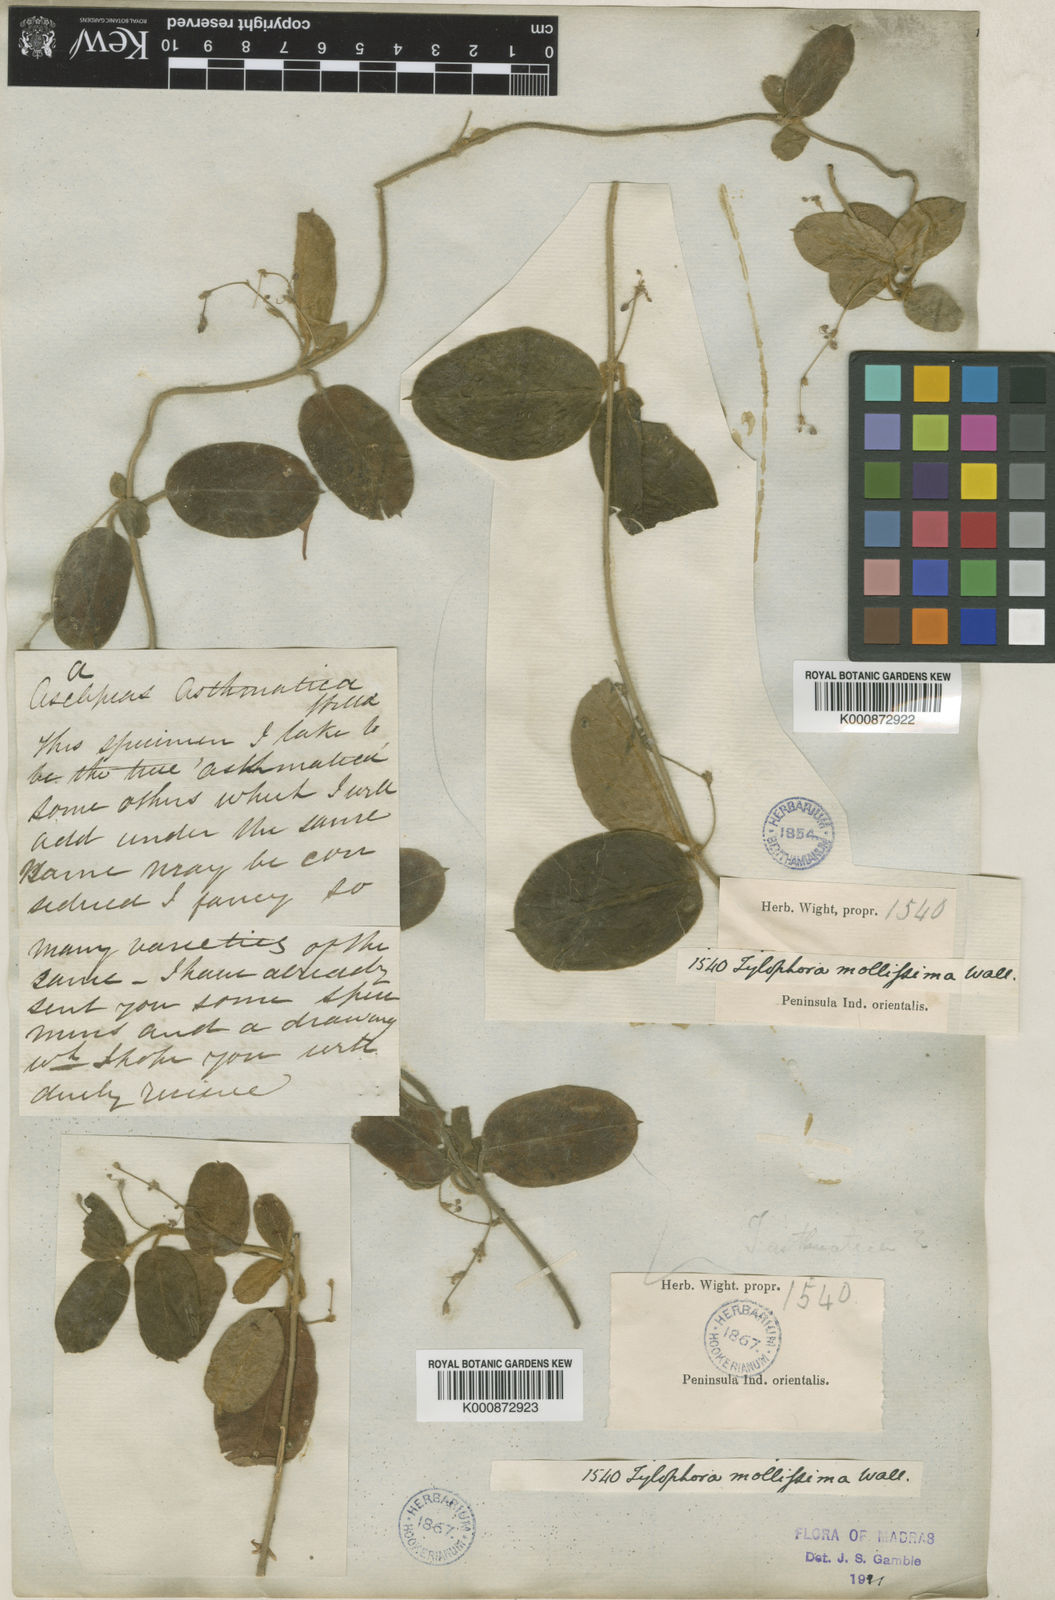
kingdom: Plantae
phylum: Tracheophyta
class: Magnoliopsida
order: Gentianales
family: Apocynaceae
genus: Vincetoxicum
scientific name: Vincetoxicum hirsutum
